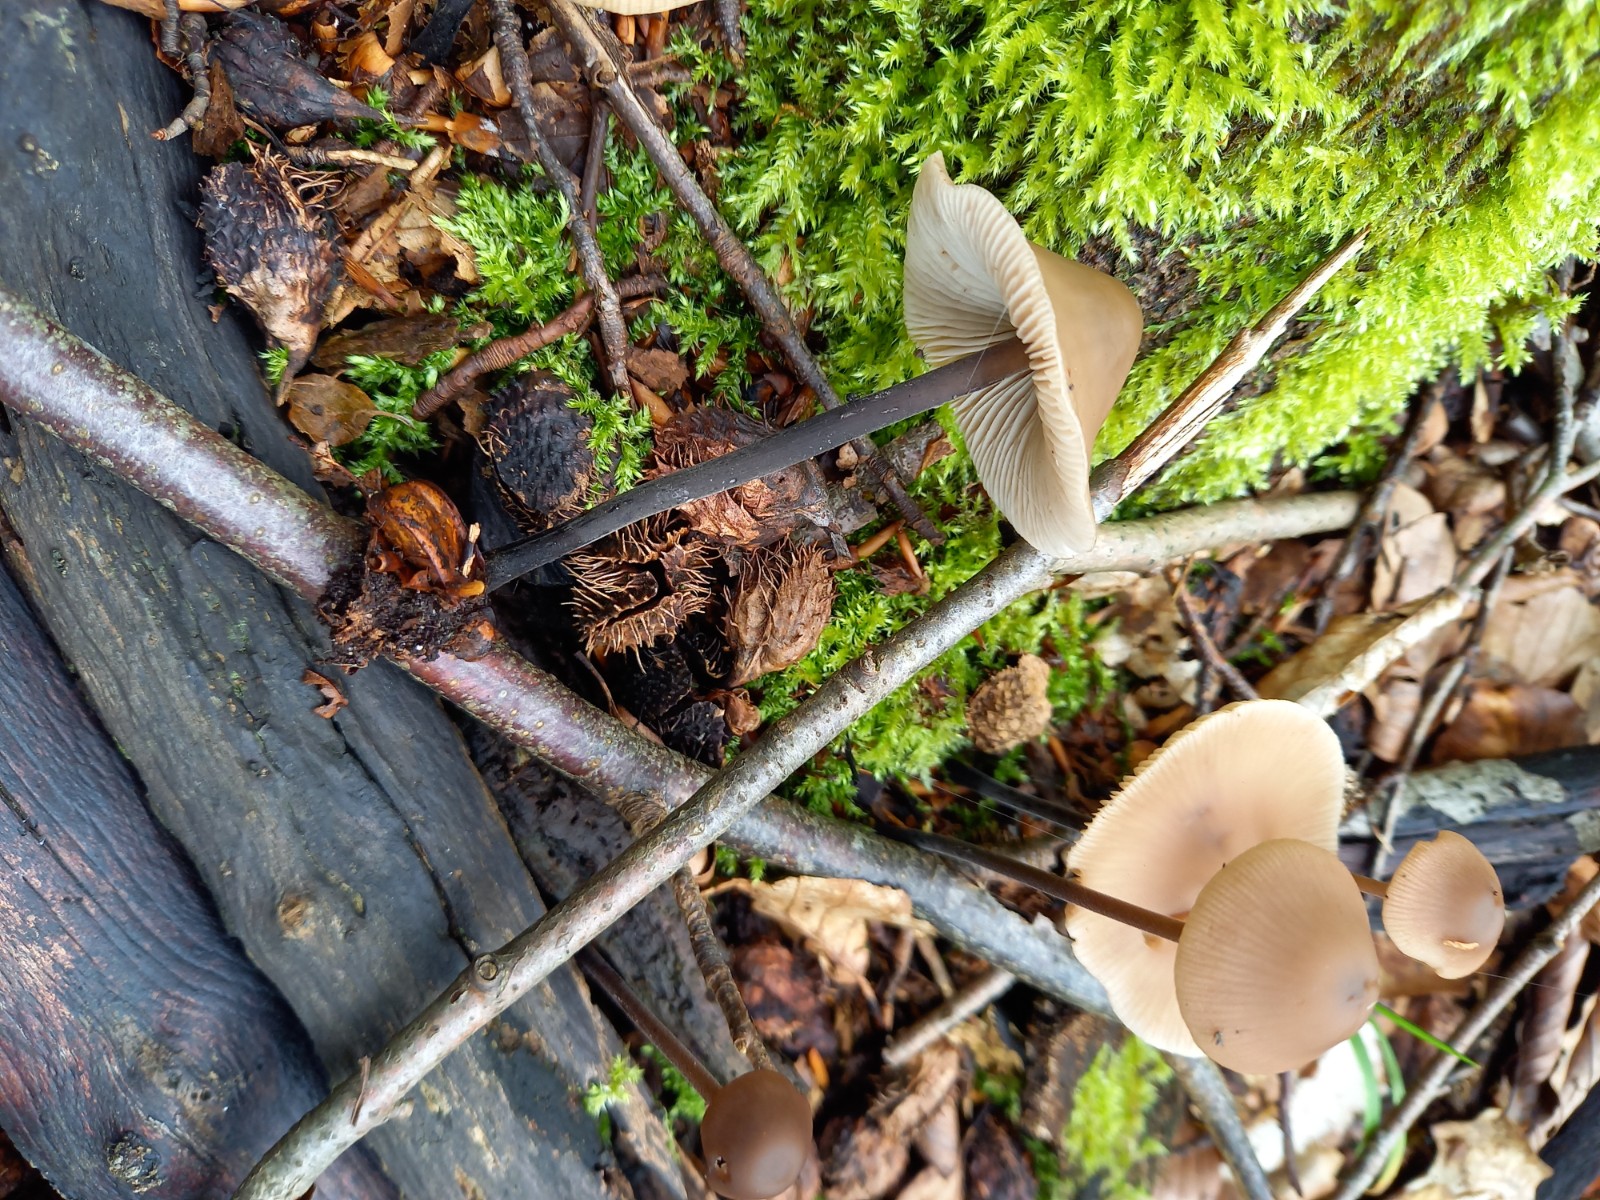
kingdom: Fungi
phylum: Basidiomycota
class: Agaricomycetes
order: Agaricales
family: Omphalotaceae
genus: Mycetinis
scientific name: Mycetinis alliaceus
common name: stor løghat
